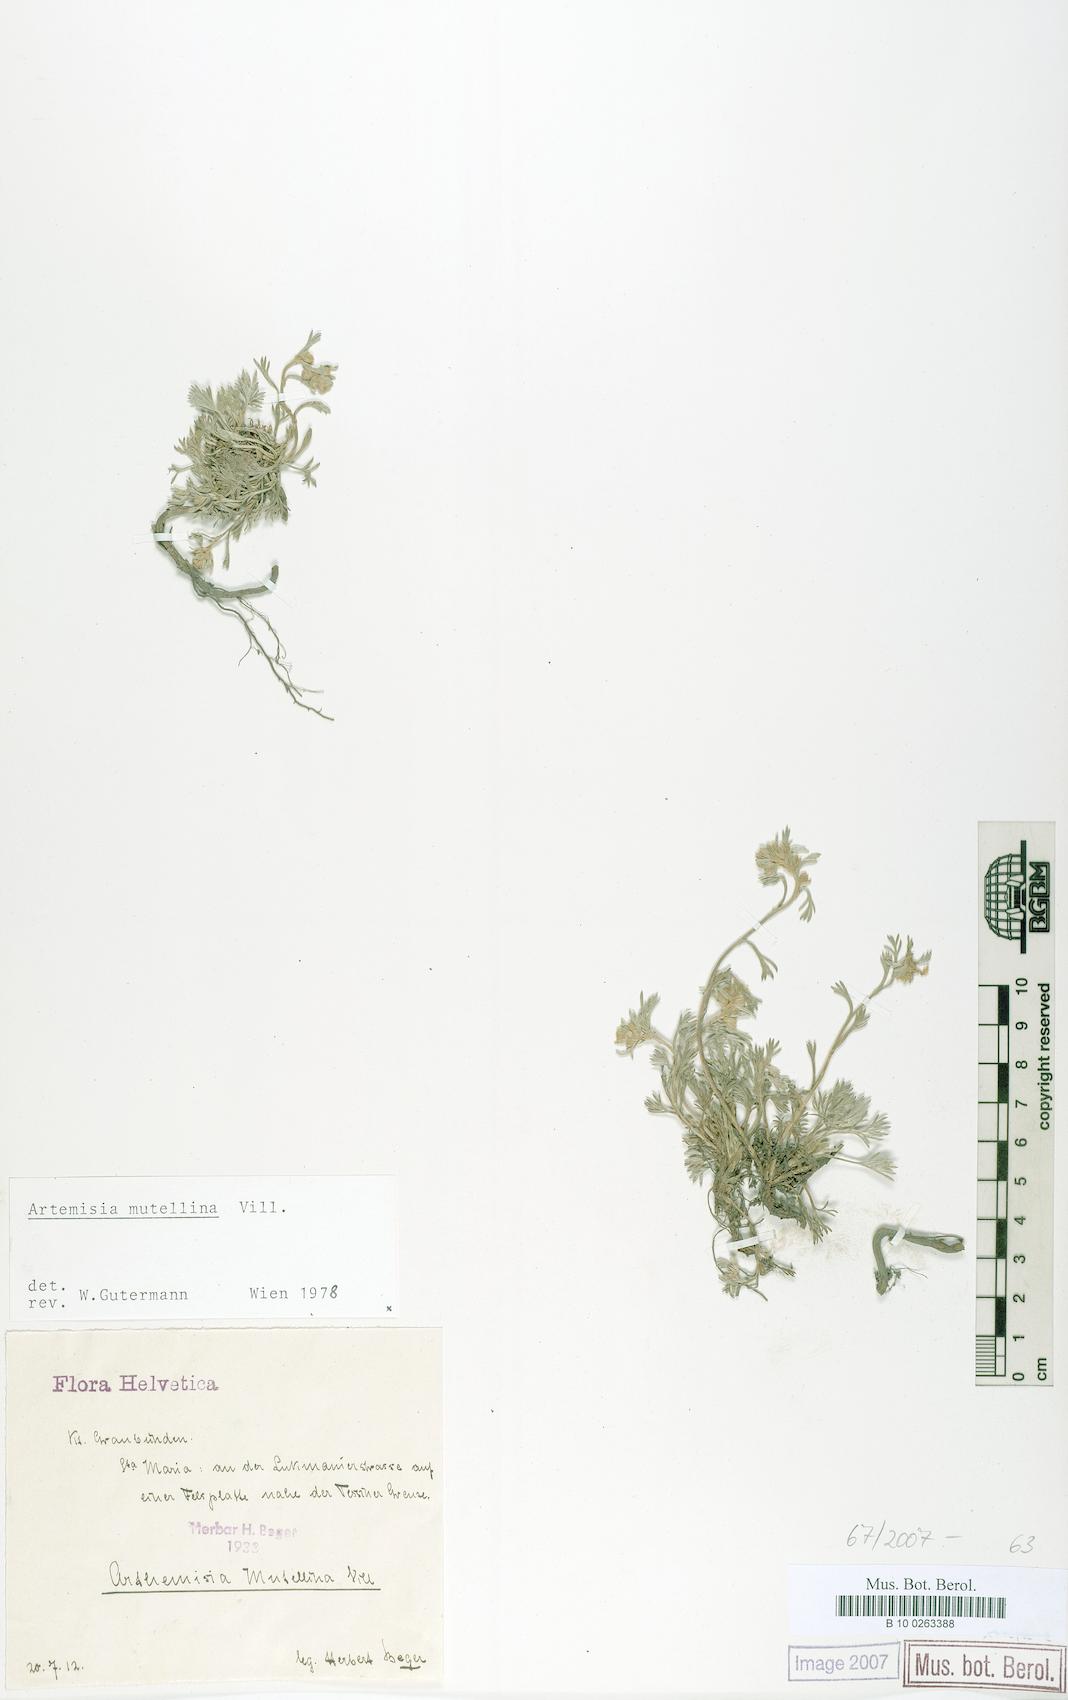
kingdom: Plantae
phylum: Tracheophyta
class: Magnoliopsida
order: Asterales
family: Asteraceae
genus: Artemisia
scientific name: Artemisia mutellina
